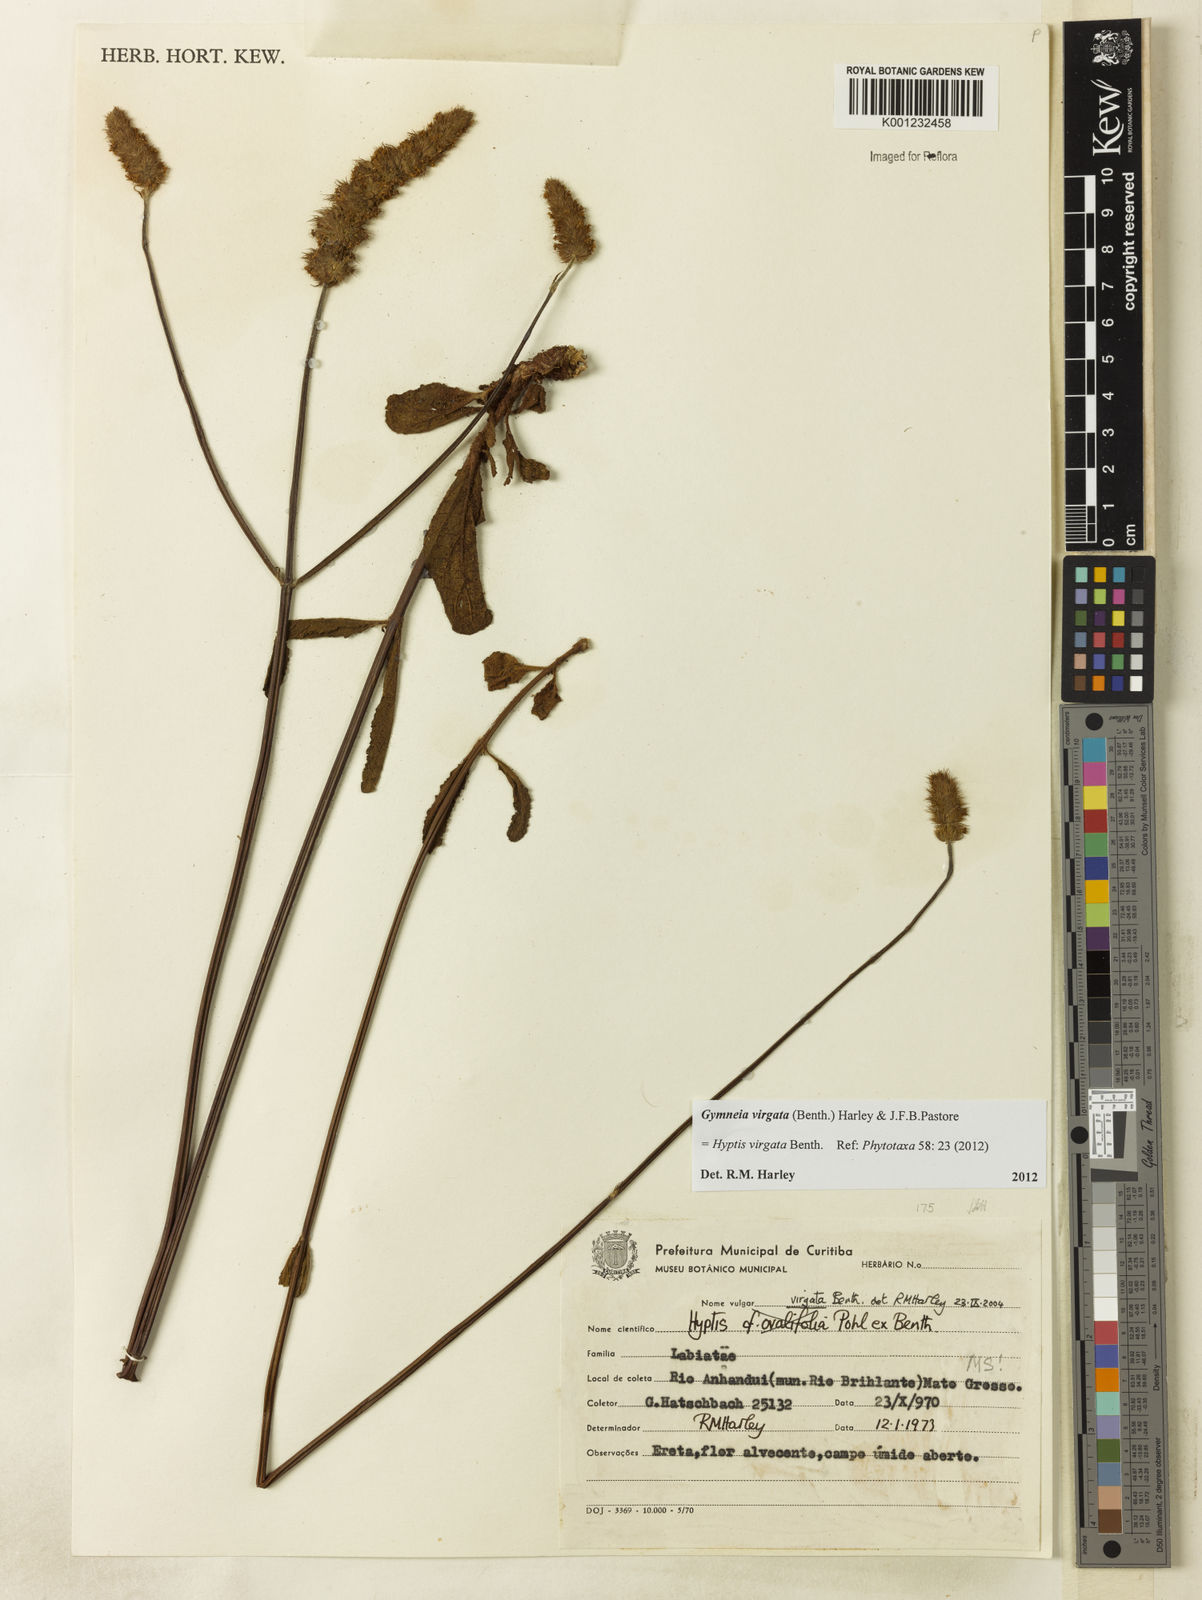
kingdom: Plantae
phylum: Tracheophyta
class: Magnoliopsida
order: Lamiales
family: Lamiaceae
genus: Gymneia
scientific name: Gymneia virgata
